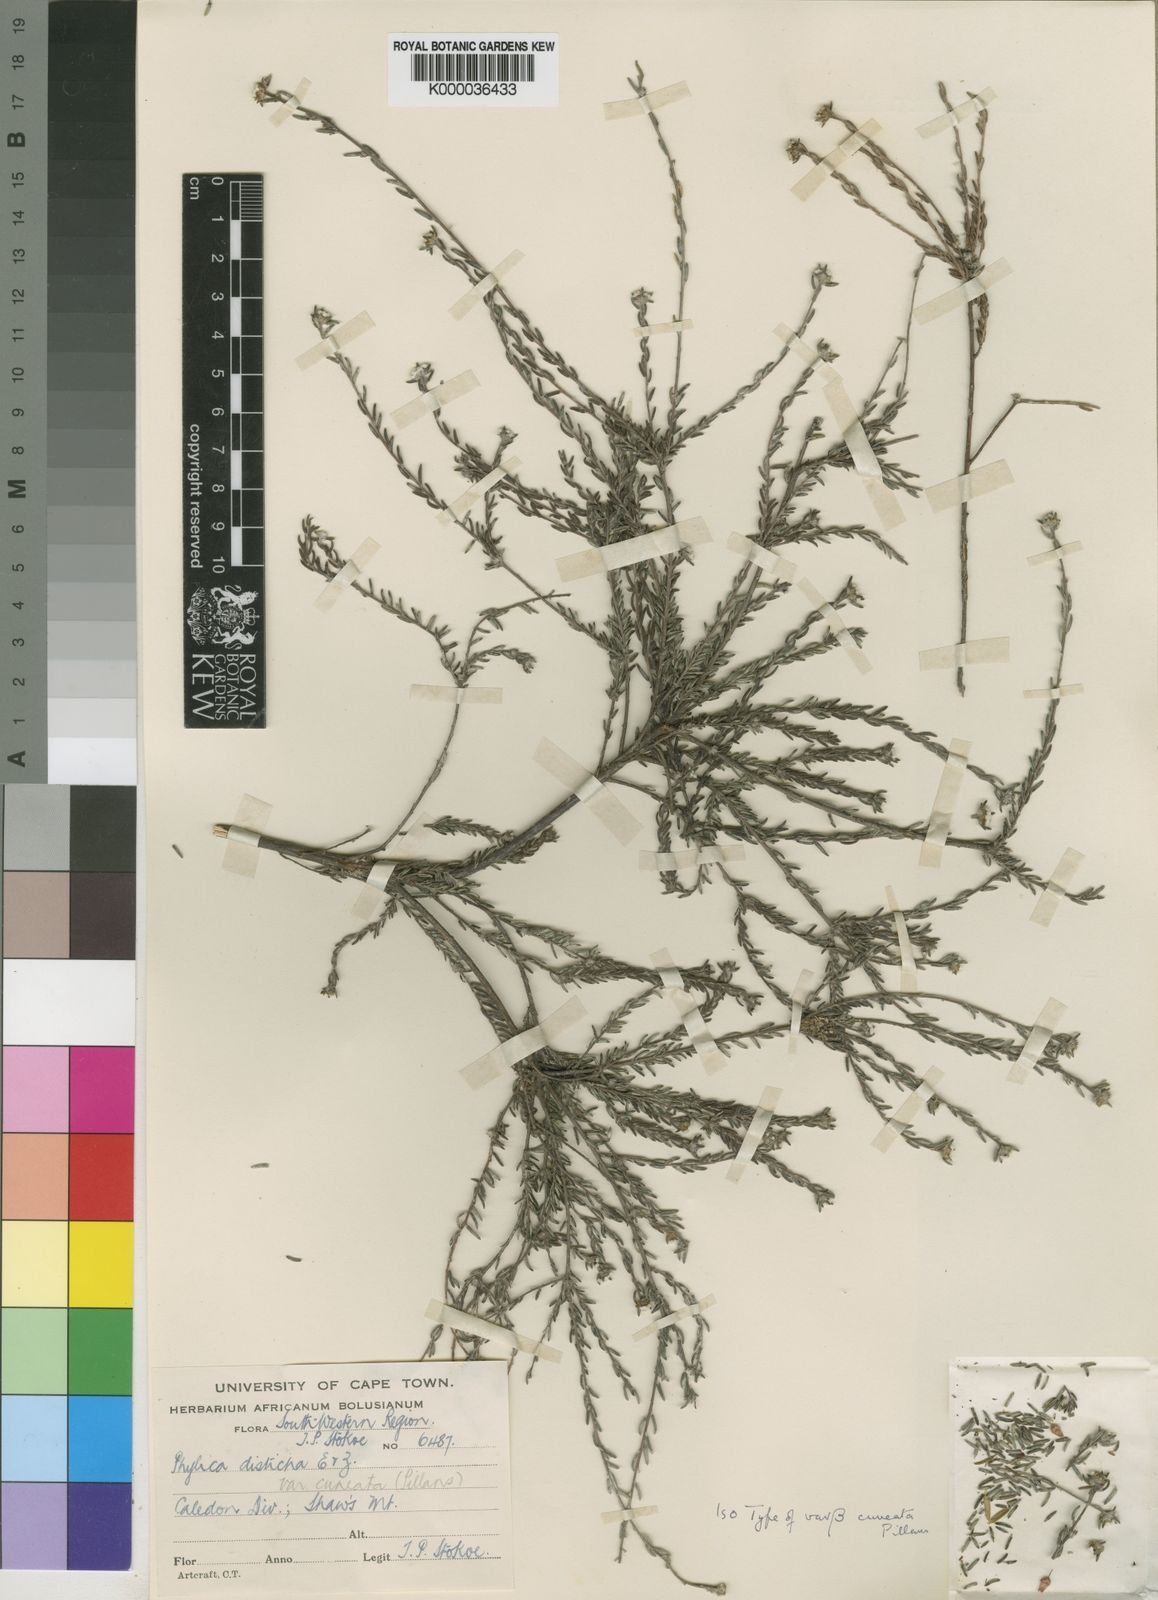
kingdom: Plantae
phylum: Tracheophyta
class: Magnoliopsida
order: Rosales
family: Rhamnaceae
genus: Phylica
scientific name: Phylica disticha
